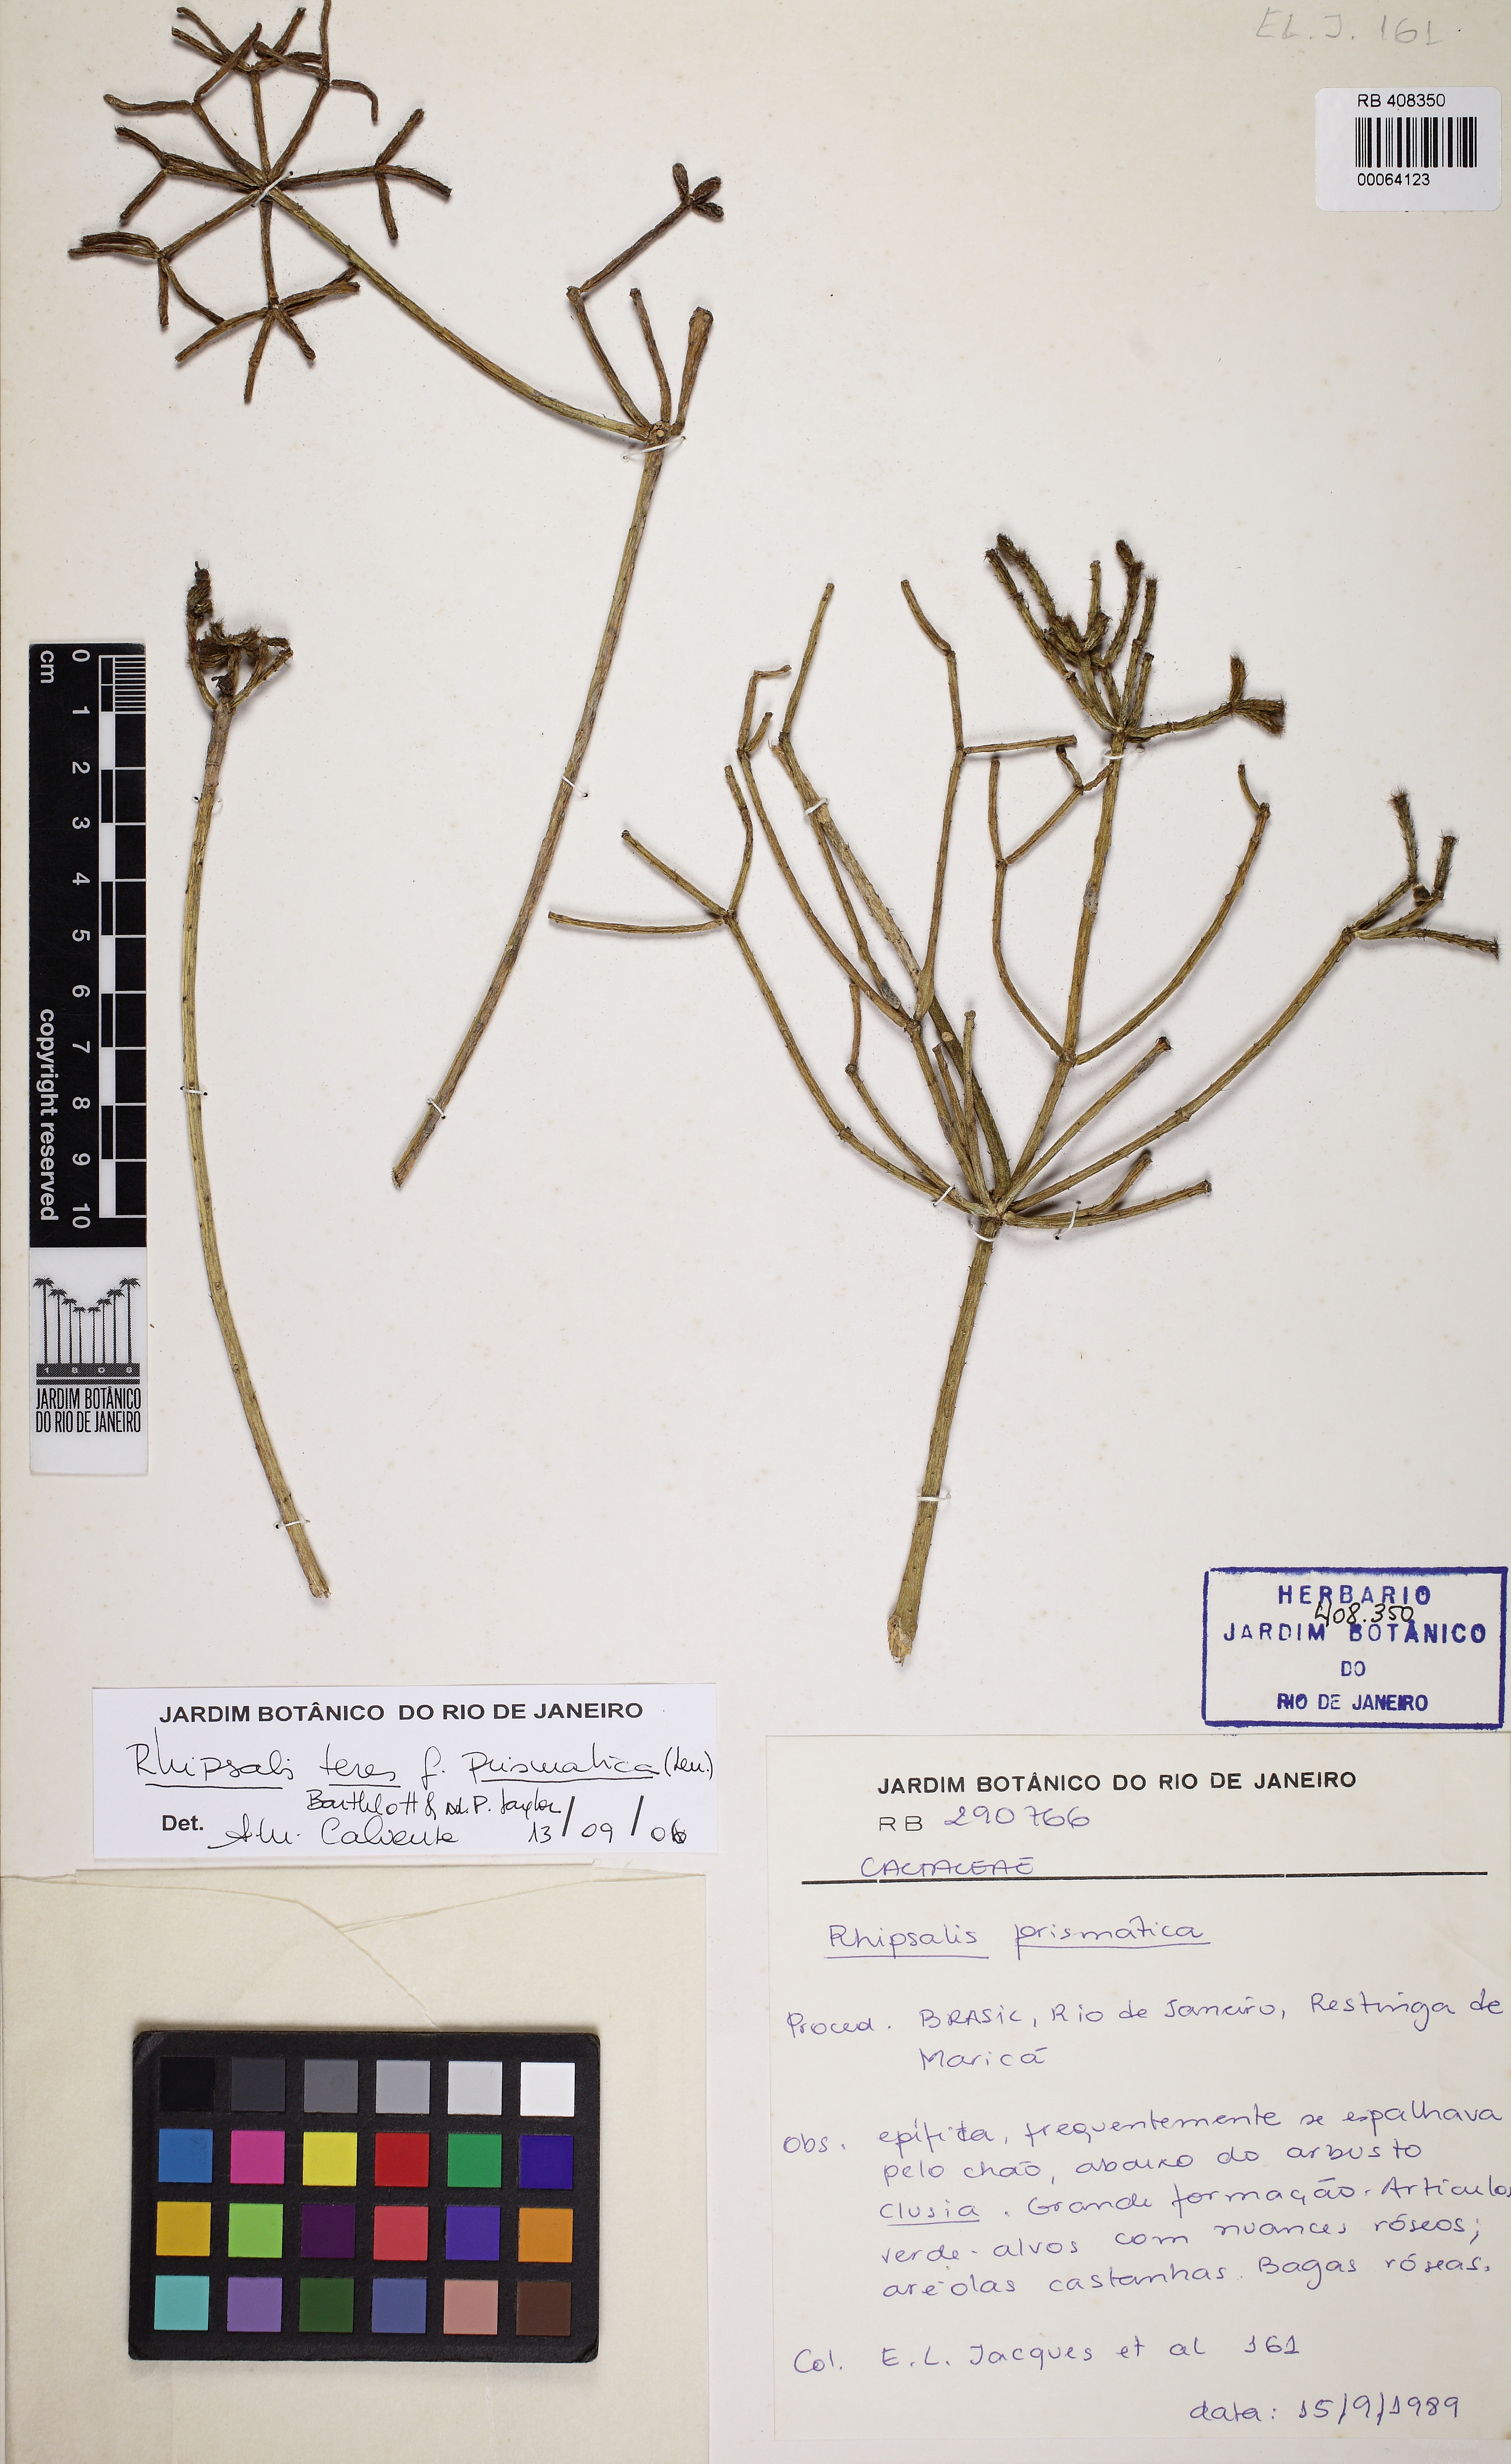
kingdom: Plantae
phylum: Tracheophyta
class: Magnoliopsida
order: Caryophyllales
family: Cactaceae
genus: Rhipsalis
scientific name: Rhipsalis teres
